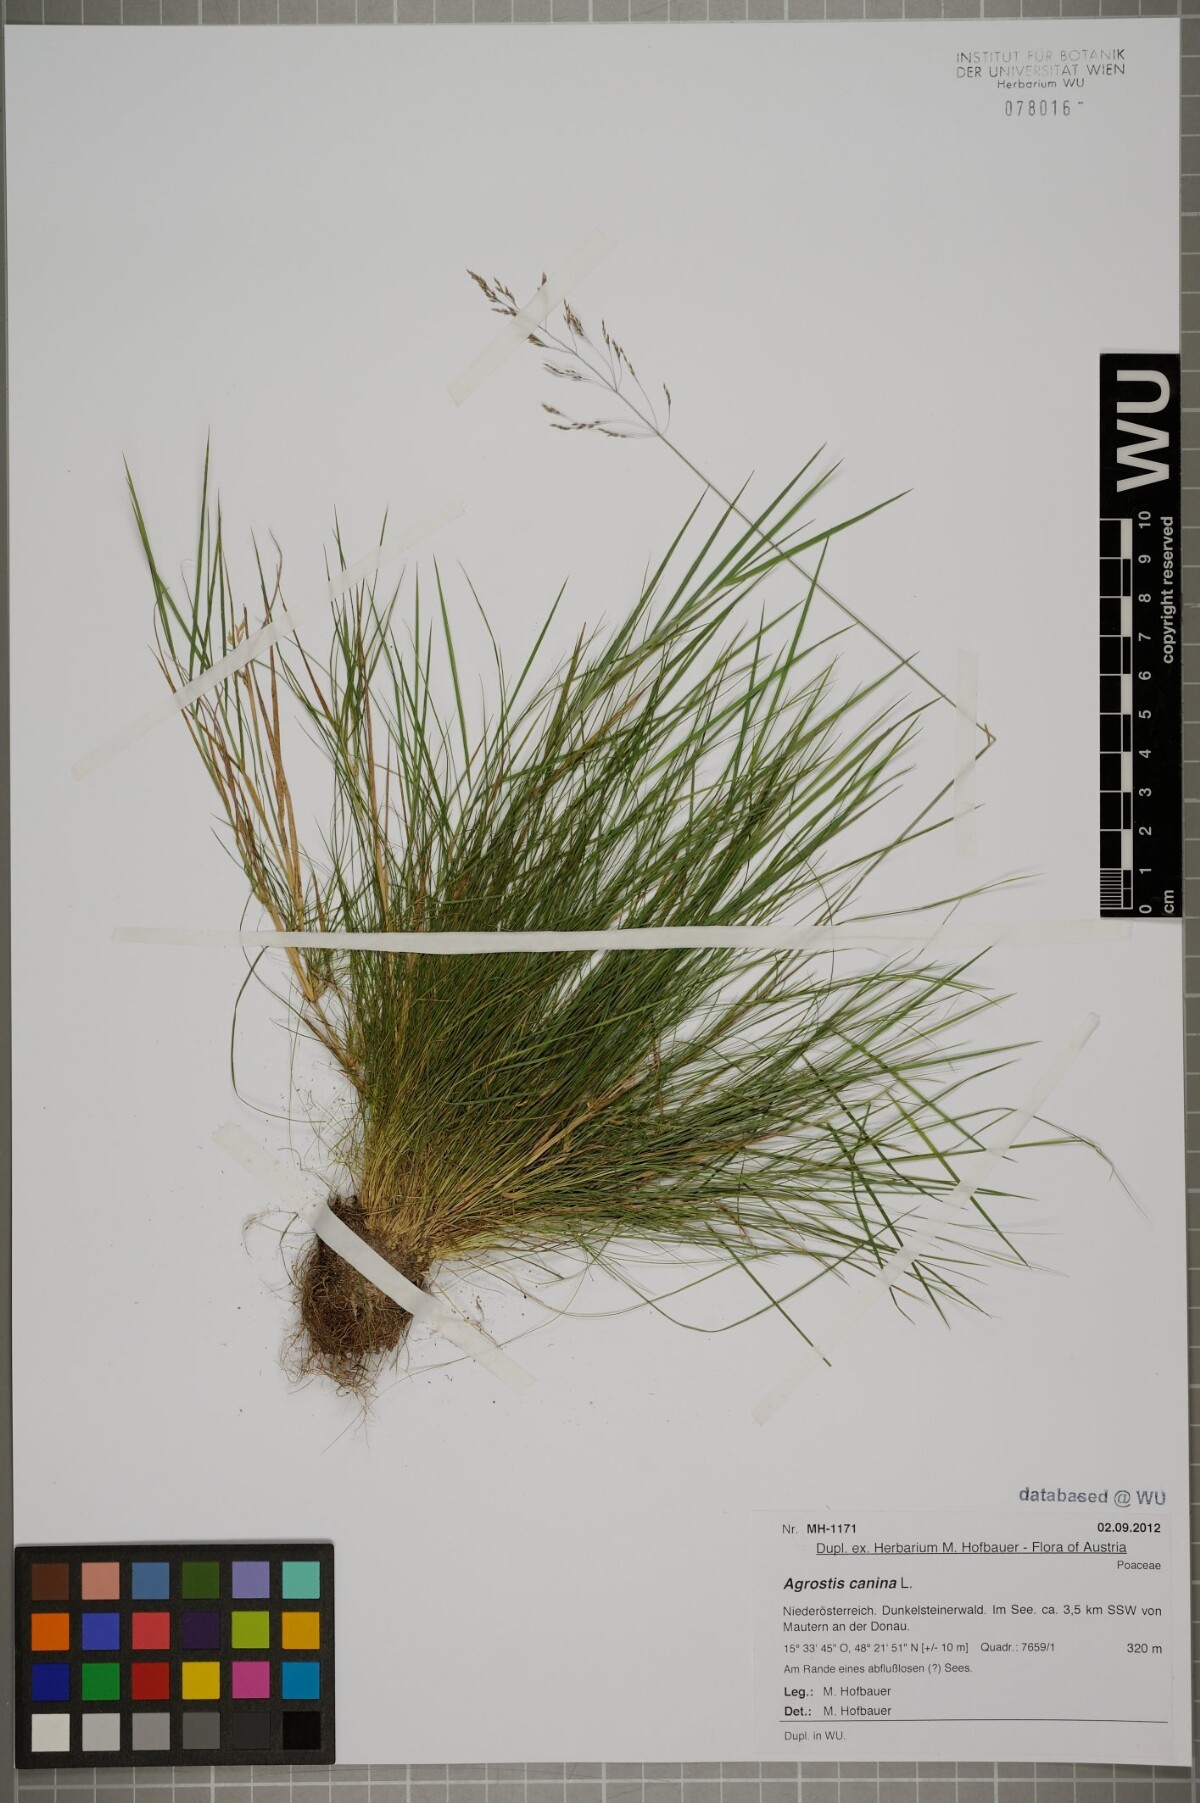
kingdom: Plantae
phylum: Tracheophyta
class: Liliopsida
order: Poales
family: Poaceae
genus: Agrostis
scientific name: Agrostis canina
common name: Velvet bent
